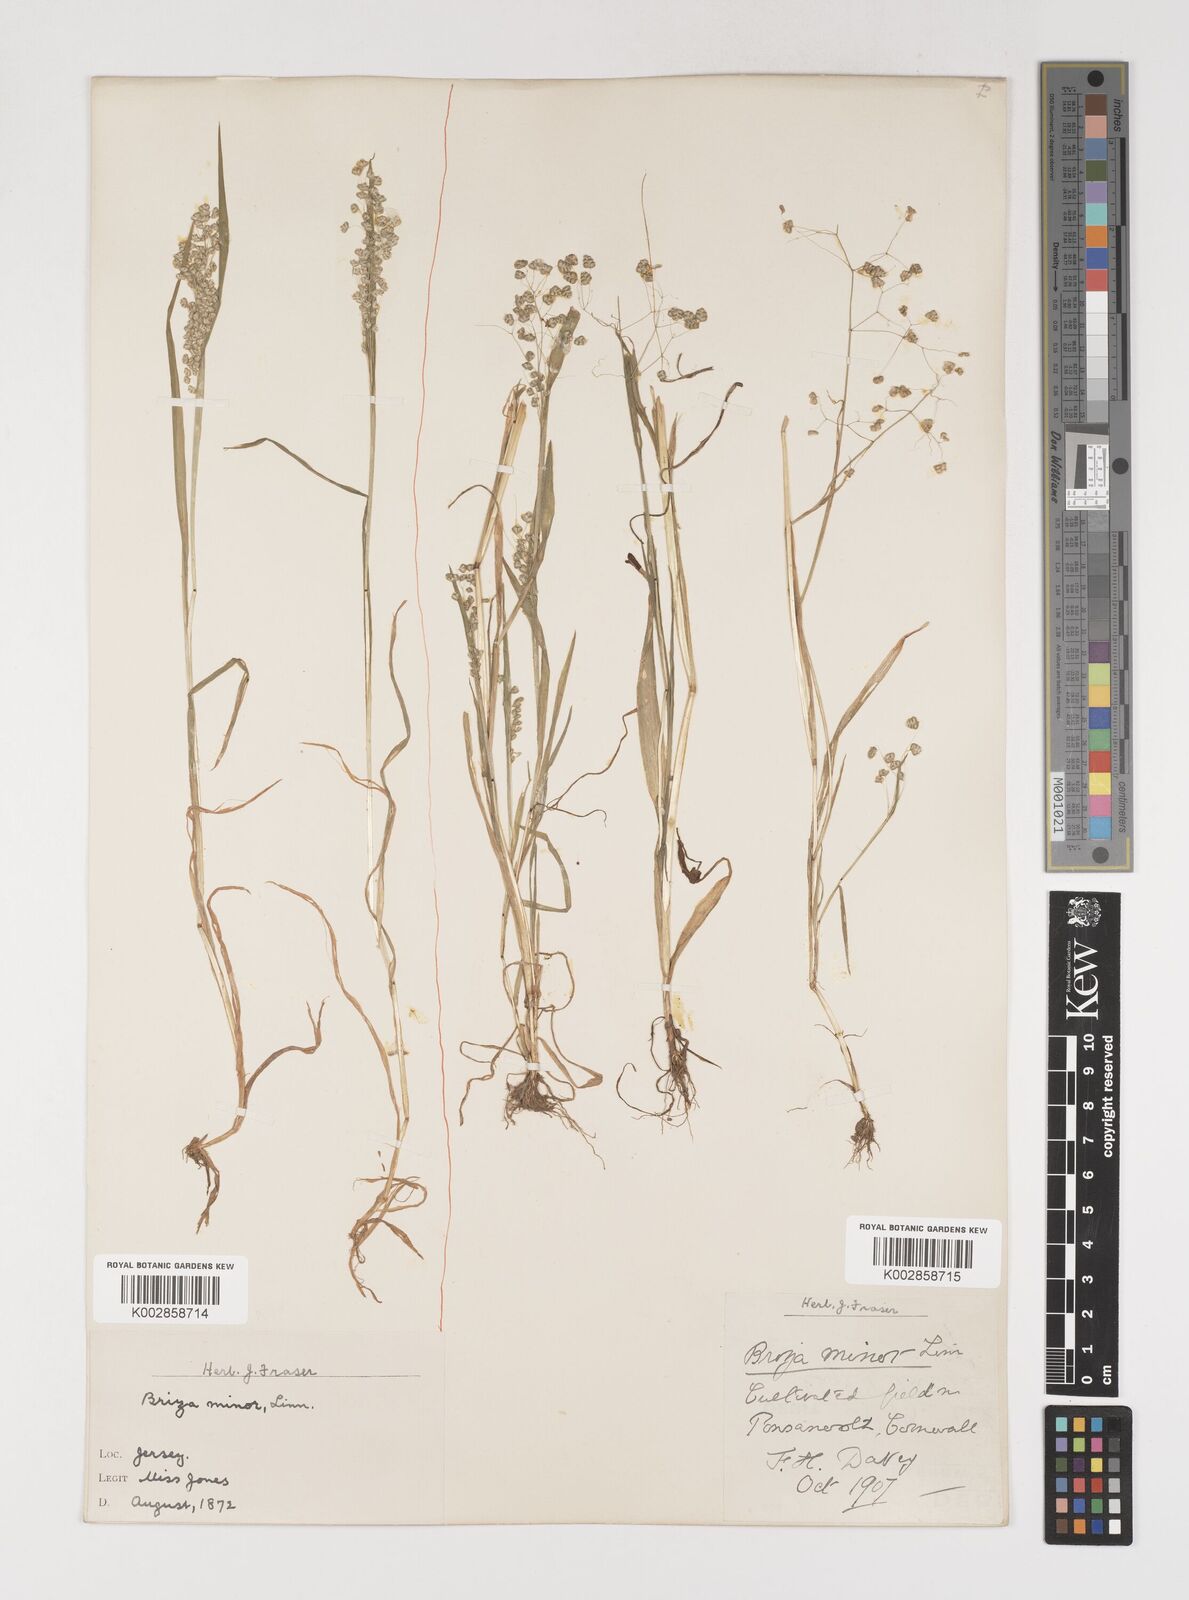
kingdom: Plantae
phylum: Tracheophyta
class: Liliopsida
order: Poales
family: Poaceae
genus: Briza
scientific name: Briza minor
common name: Lesser quaking-grass
